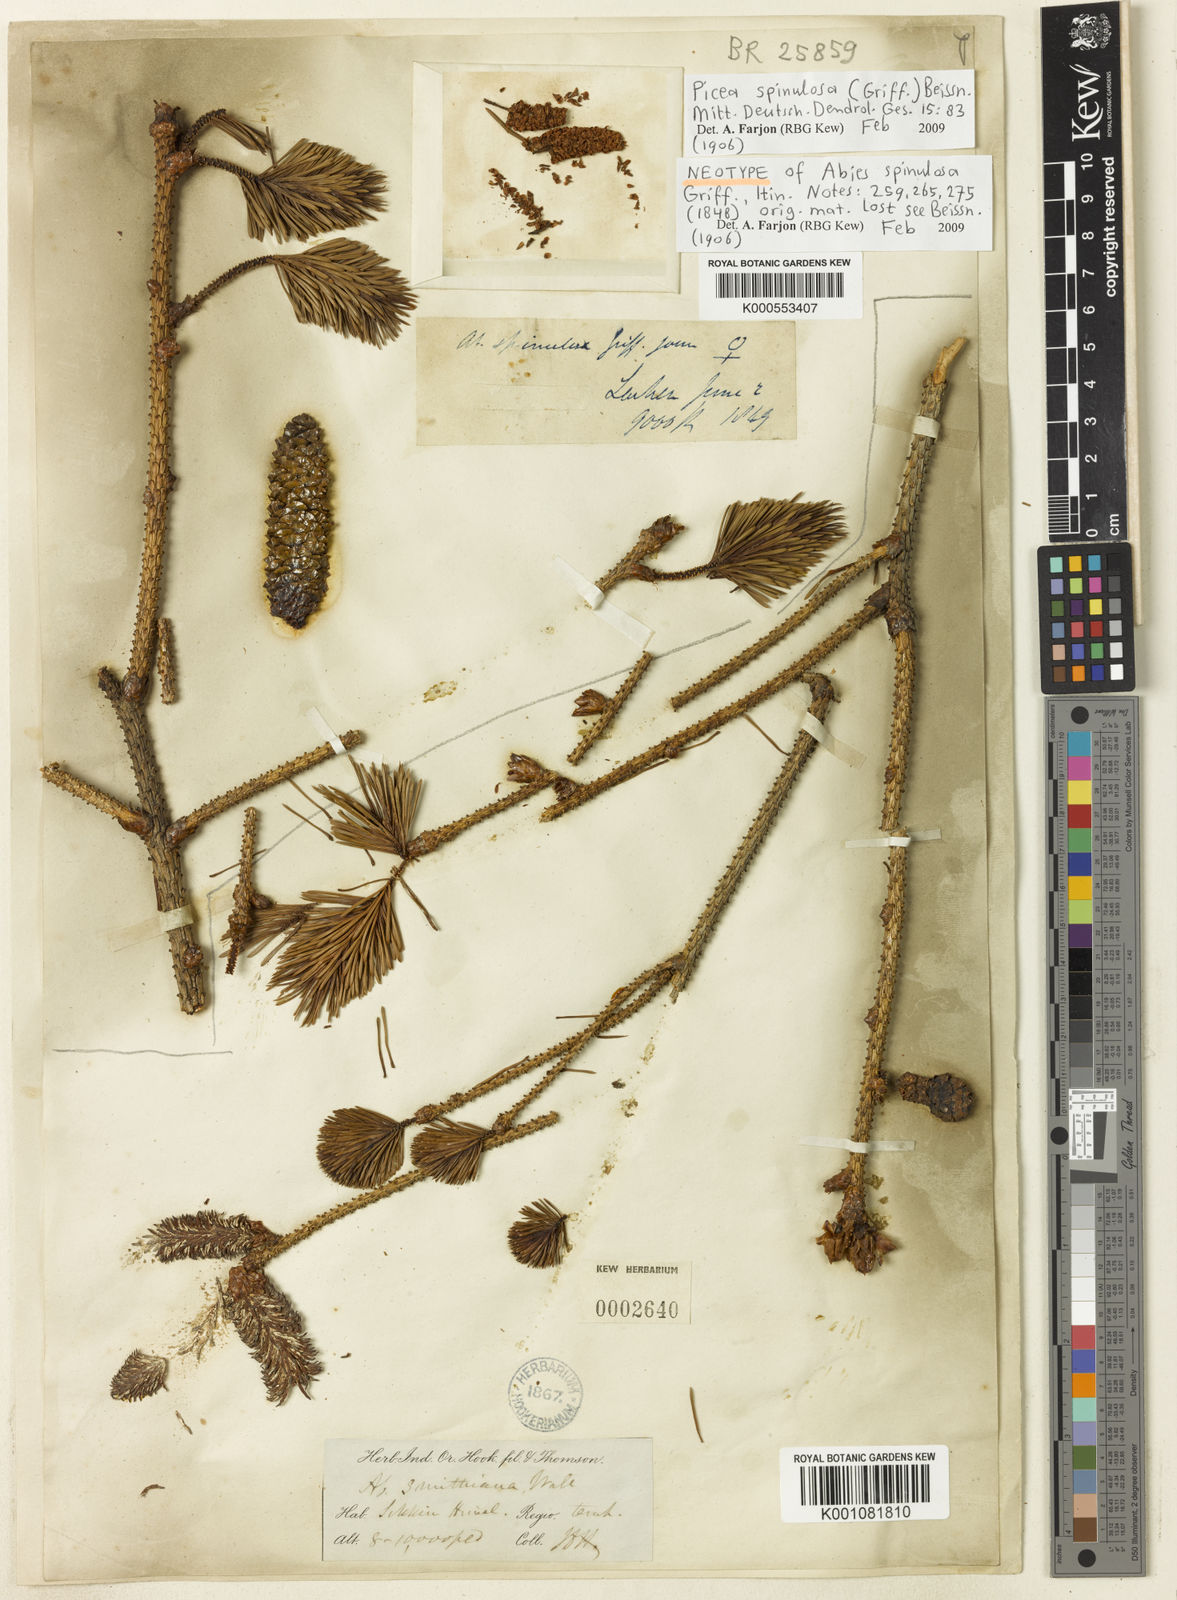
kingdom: Plantae
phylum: Tracheophyta
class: Pinopsida
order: Pinales
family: Pinaceae
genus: Picea
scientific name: Picea
